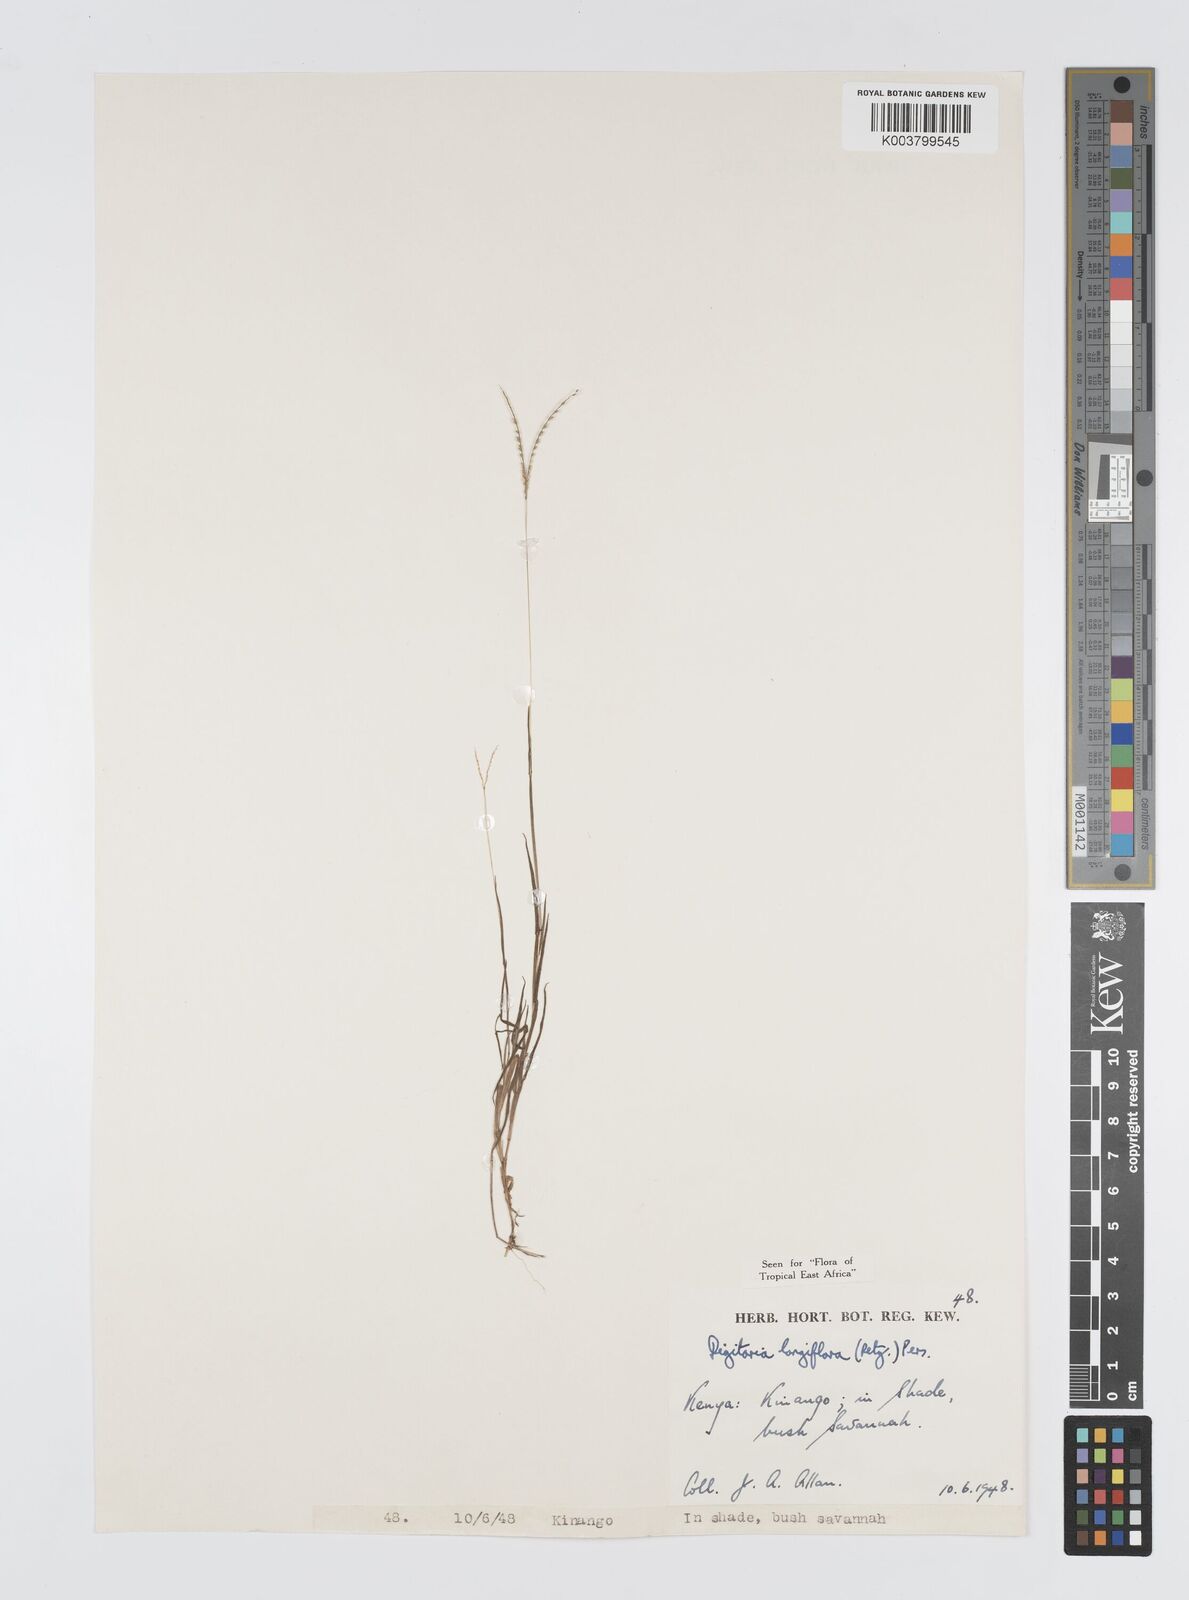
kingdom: Plantae
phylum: Tracheophyta
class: Liliopsida
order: Poales
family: Poaceae
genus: Digitaria
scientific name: Digitaria longiflora
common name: Wire crabgrass
